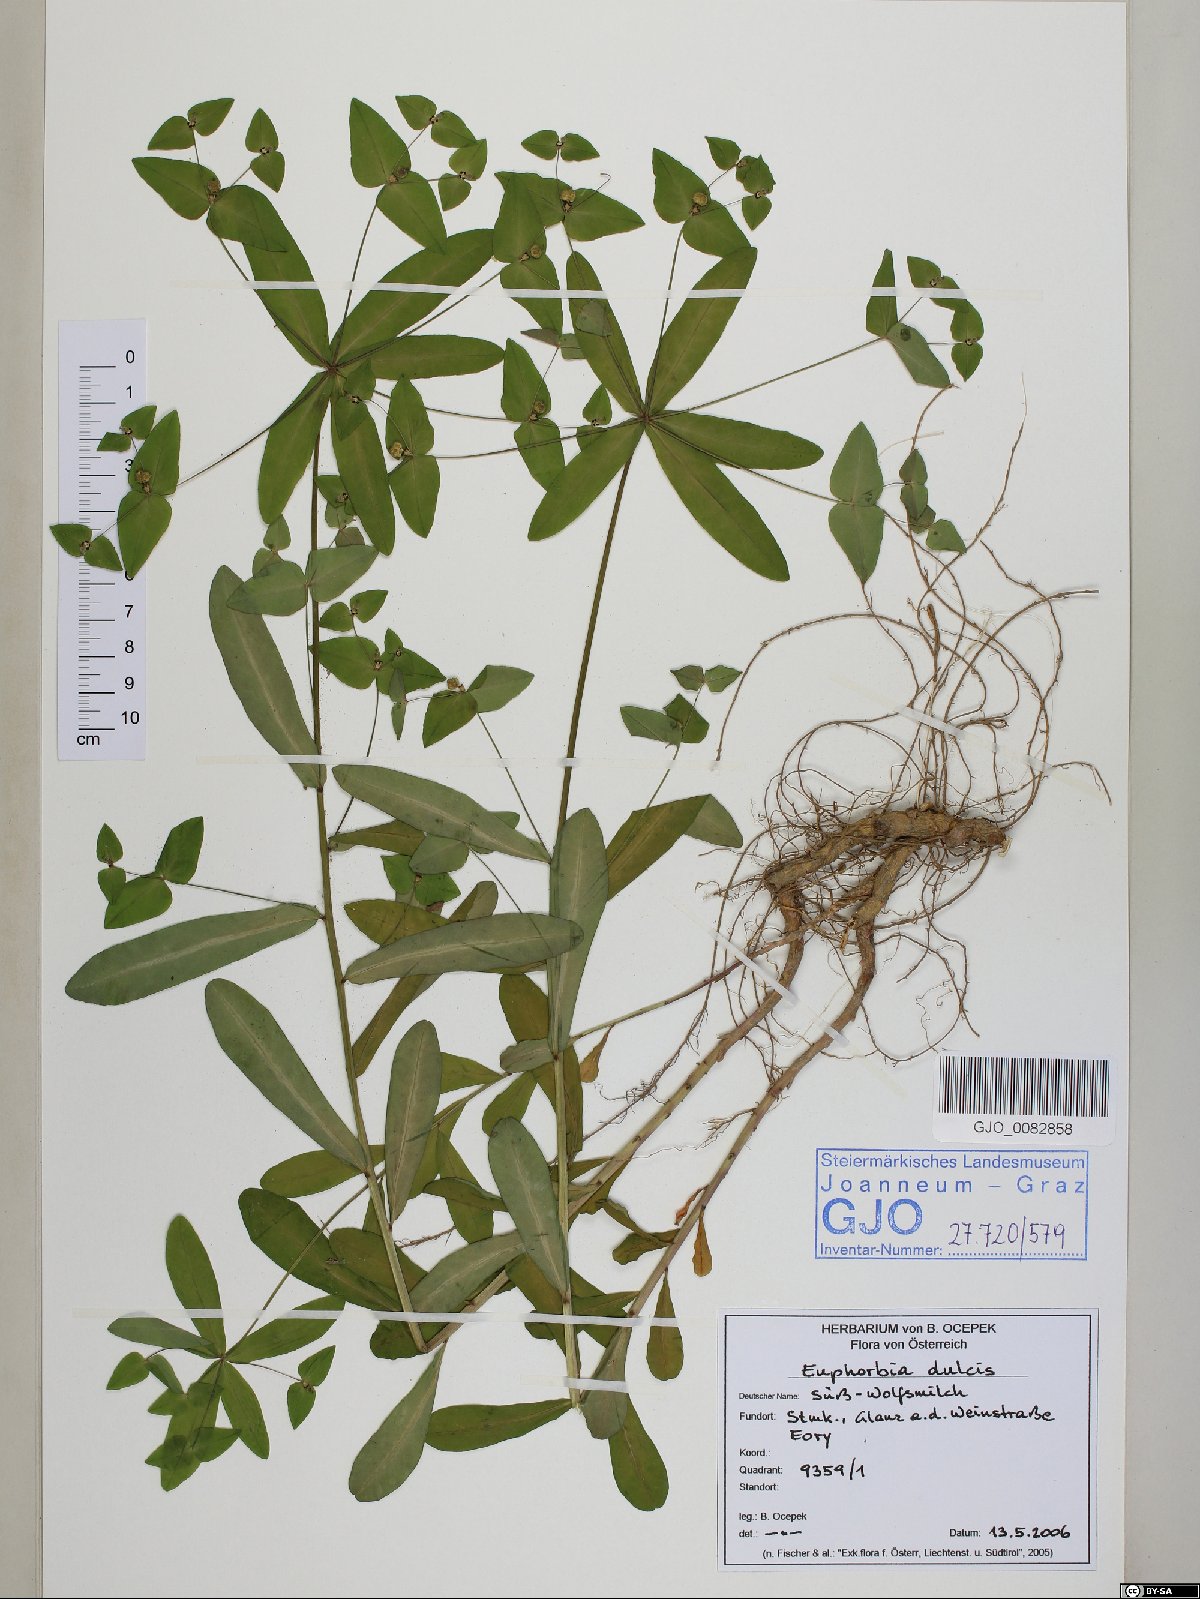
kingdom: Plantae
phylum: Tracheophyta
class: Magnoliopsida
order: Malpighiales
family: Euphorbiaceae
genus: Euphorbia
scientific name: Euphorbia dulcis
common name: Sweet spurge
